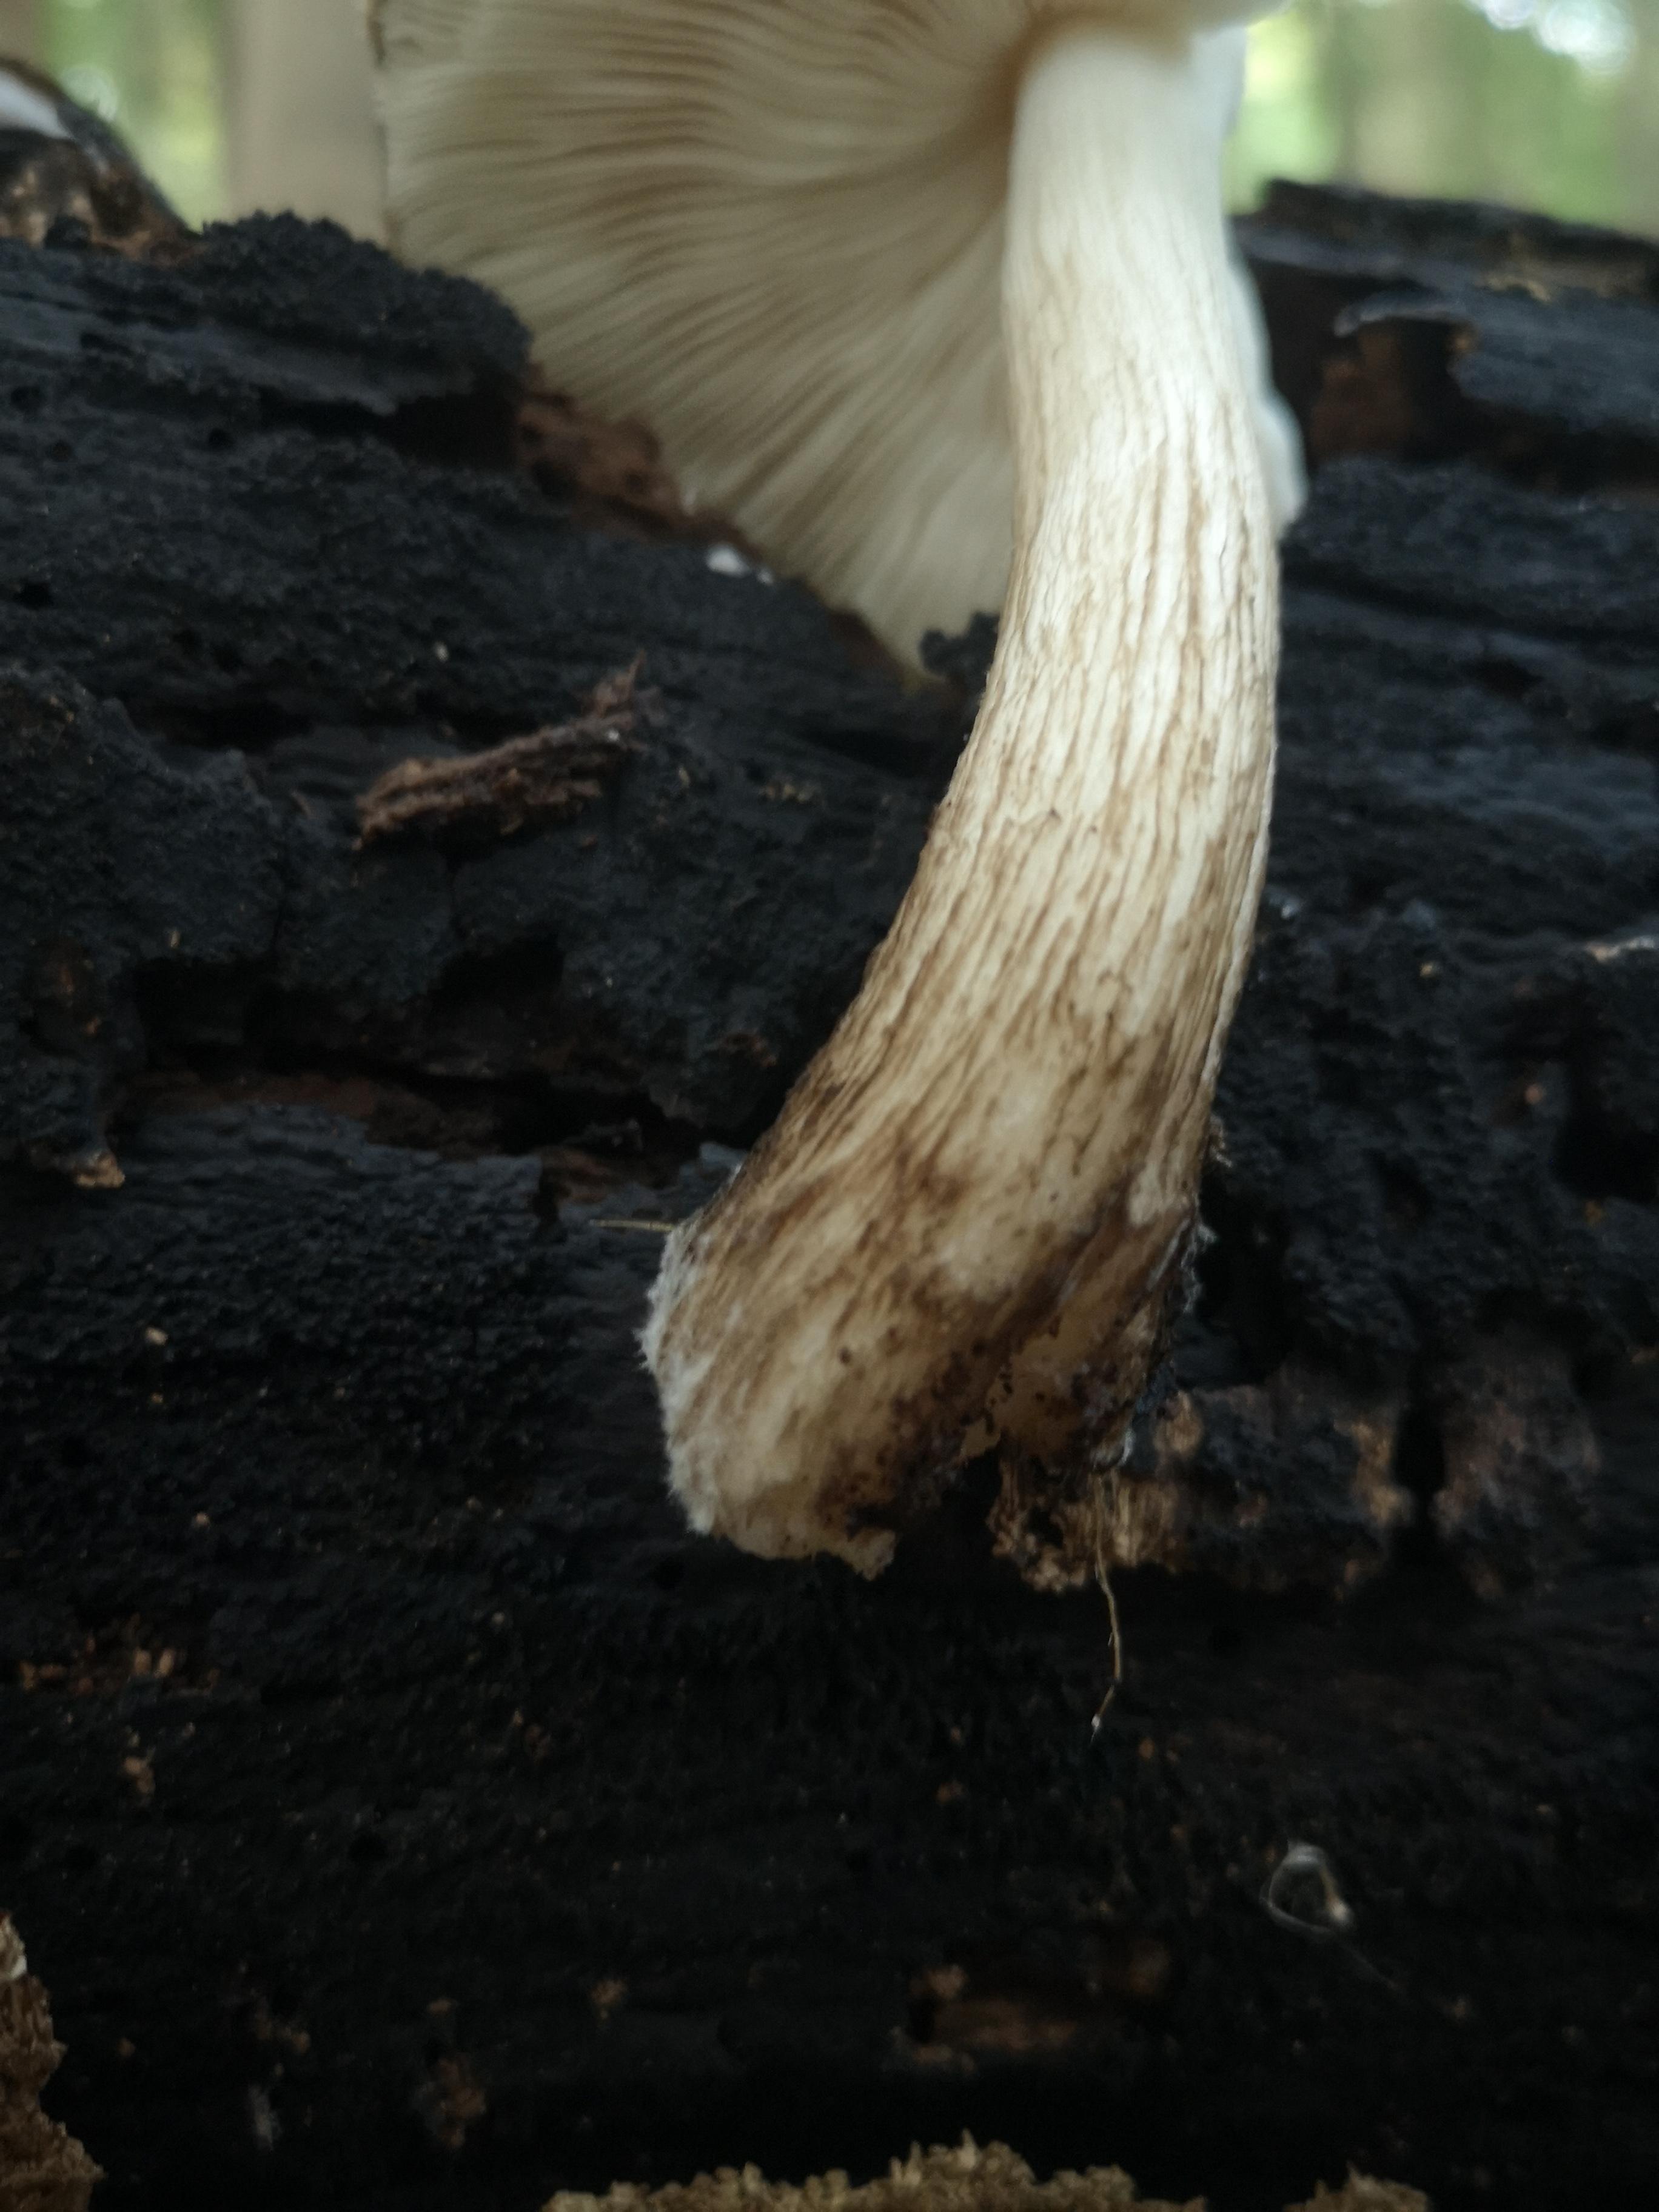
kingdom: Fungi
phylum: Basidiomycota
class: Agaricomycetes
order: Agaricales
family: Pluteaceae
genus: Pluteus
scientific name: Pluteus cervinus
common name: sodfarvet skærmhat
